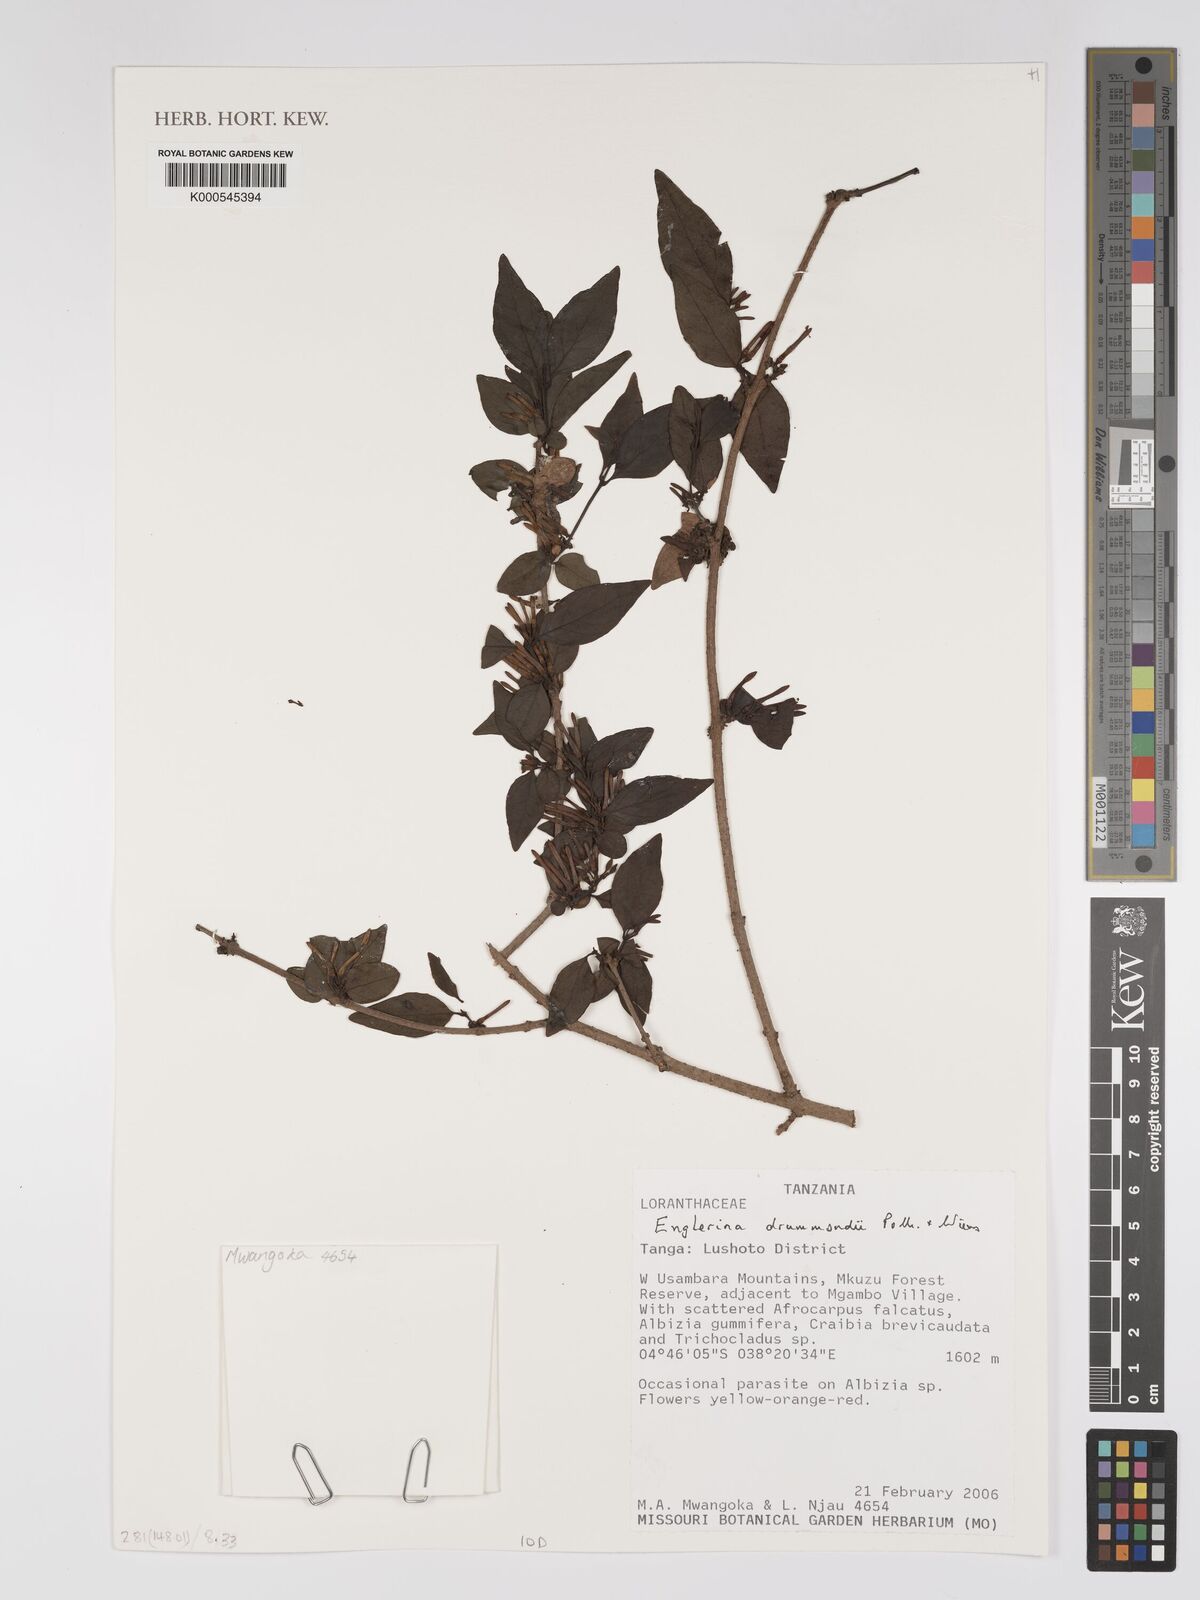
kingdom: Plantae
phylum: Tracheophyta
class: Magnoliopsida
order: Santalales
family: Loranthaceae
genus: Englerina
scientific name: Englerina drummondii
